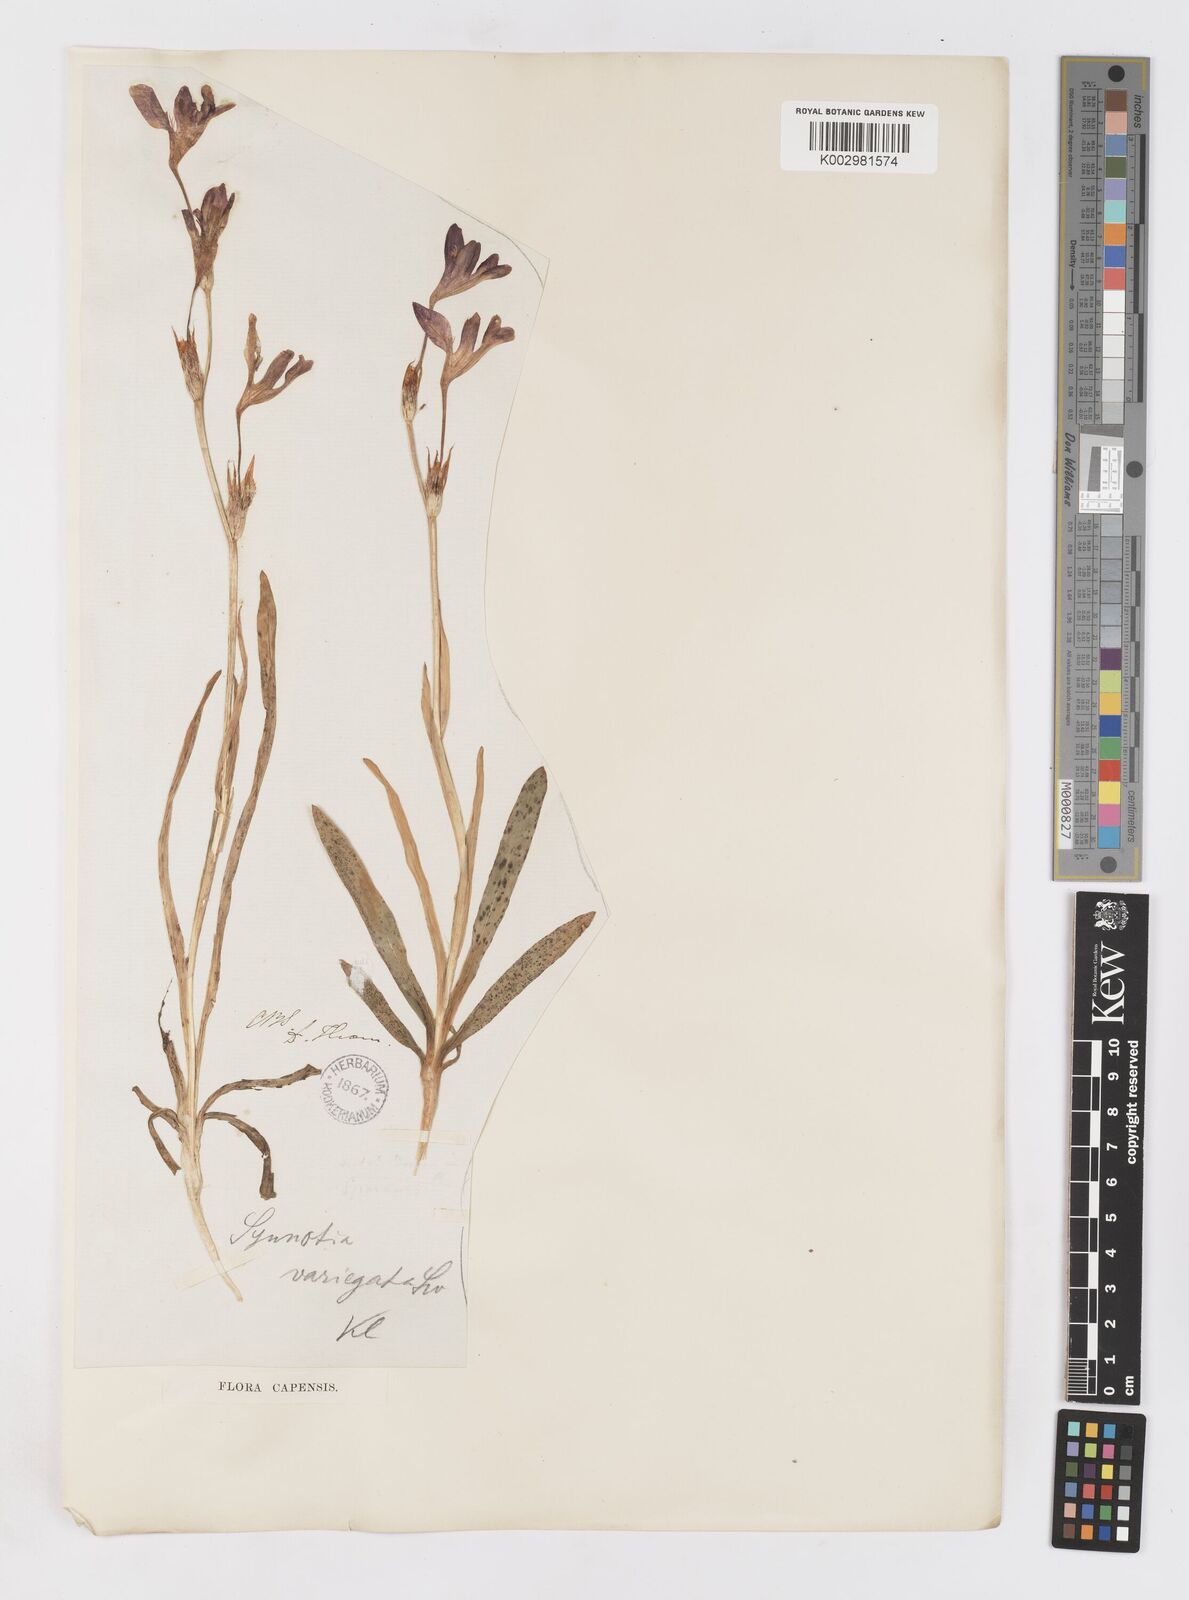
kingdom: Plantae
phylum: Tracheophyta
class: Liliopsida
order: Asparagales
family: Iridaceae
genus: Sparaxis
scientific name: Sparaxis variegata
